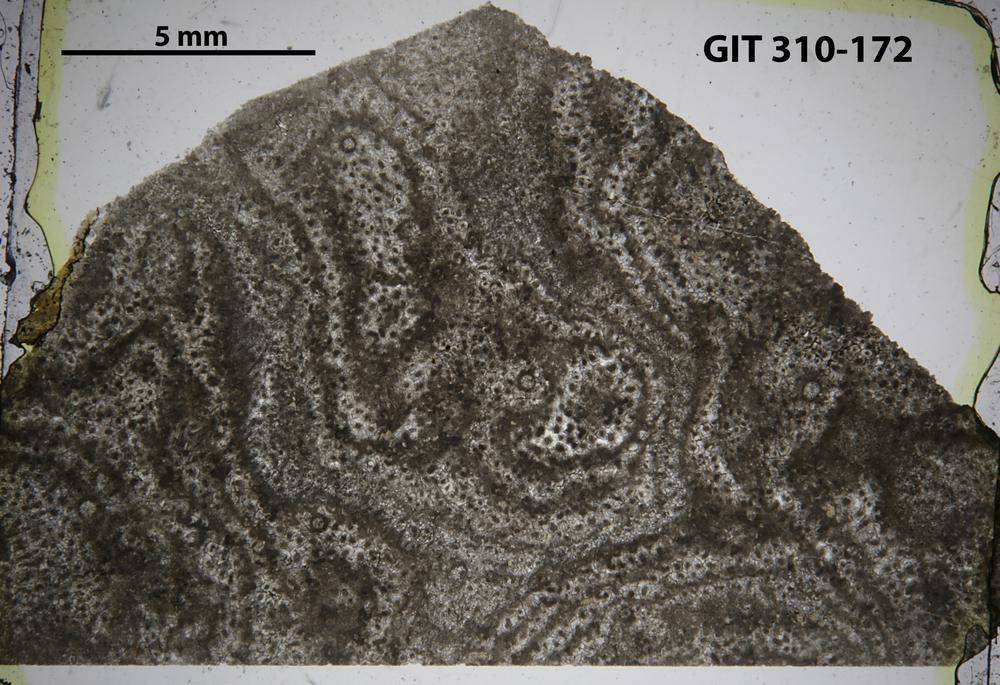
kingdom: Animalia
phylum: Porifera
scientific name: Porifera
